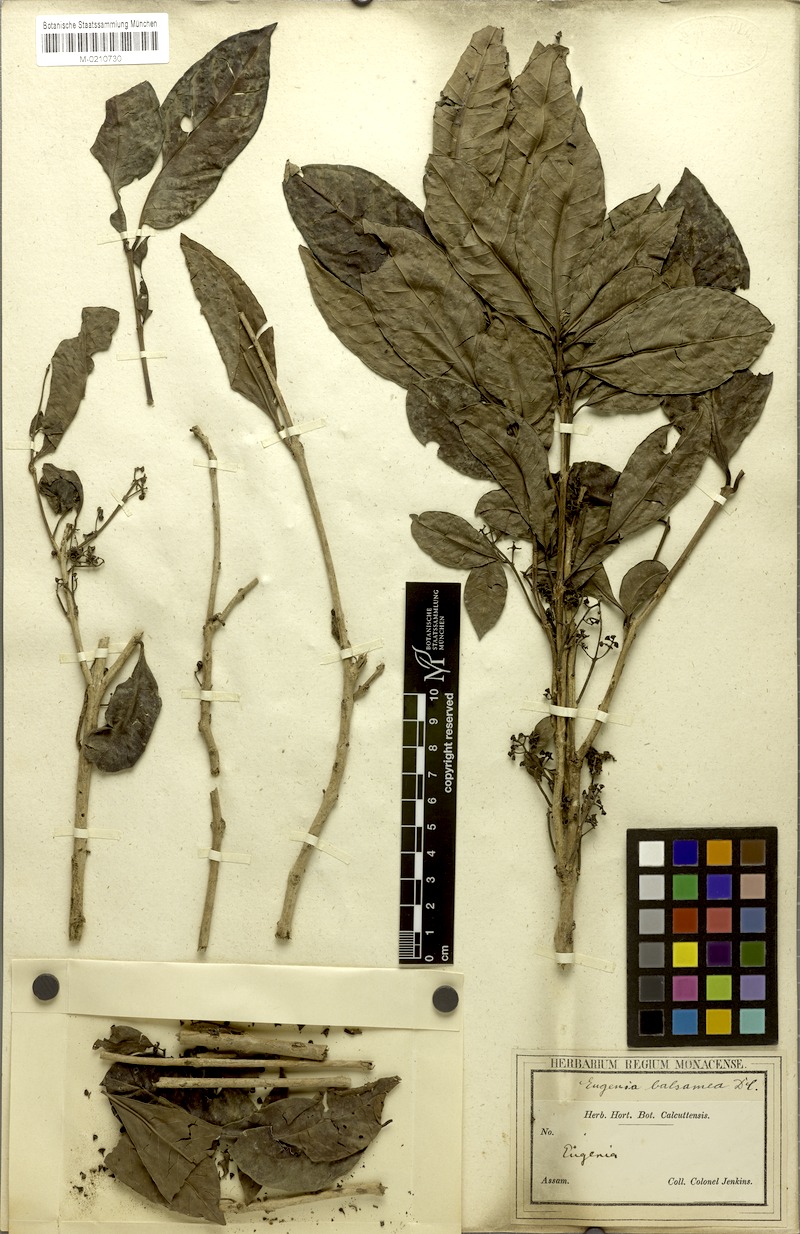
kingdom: Plantae
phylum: Tracheophyta
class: Magnoliopsida
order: Myrtales
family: Myrtaceae
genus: Syzygium
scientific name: Syzygium balsameum
